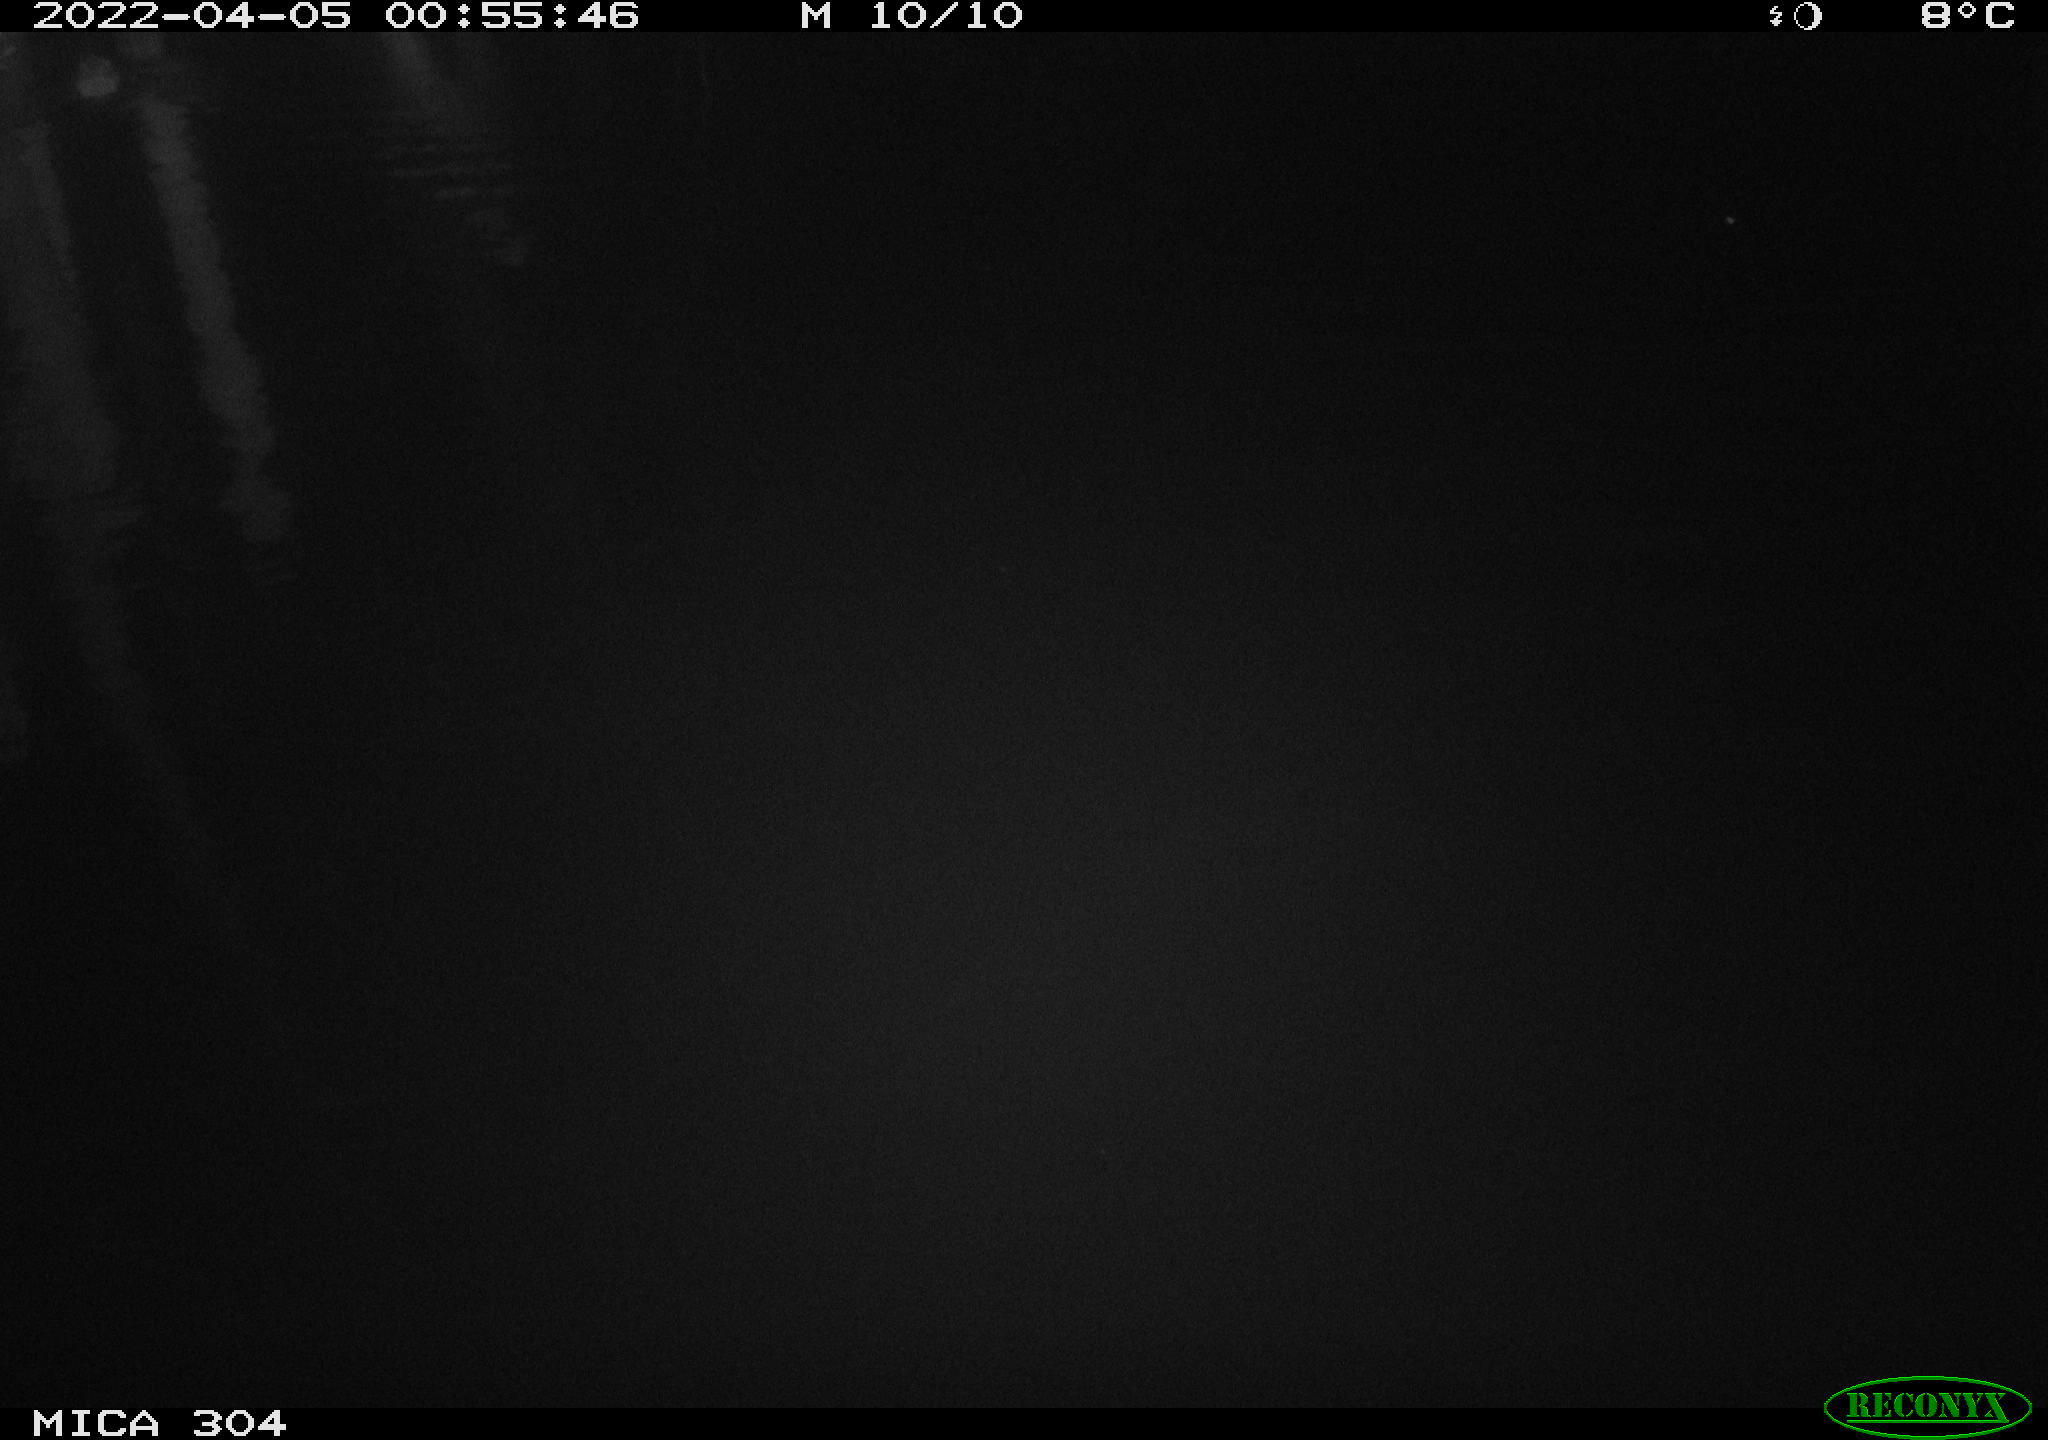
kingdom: Animalia
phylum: Chordata
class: Mammalia
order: Rodentia
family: Cricetidae
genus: Ondatra
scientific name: Ondatra zibethicus
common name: Muskrat
